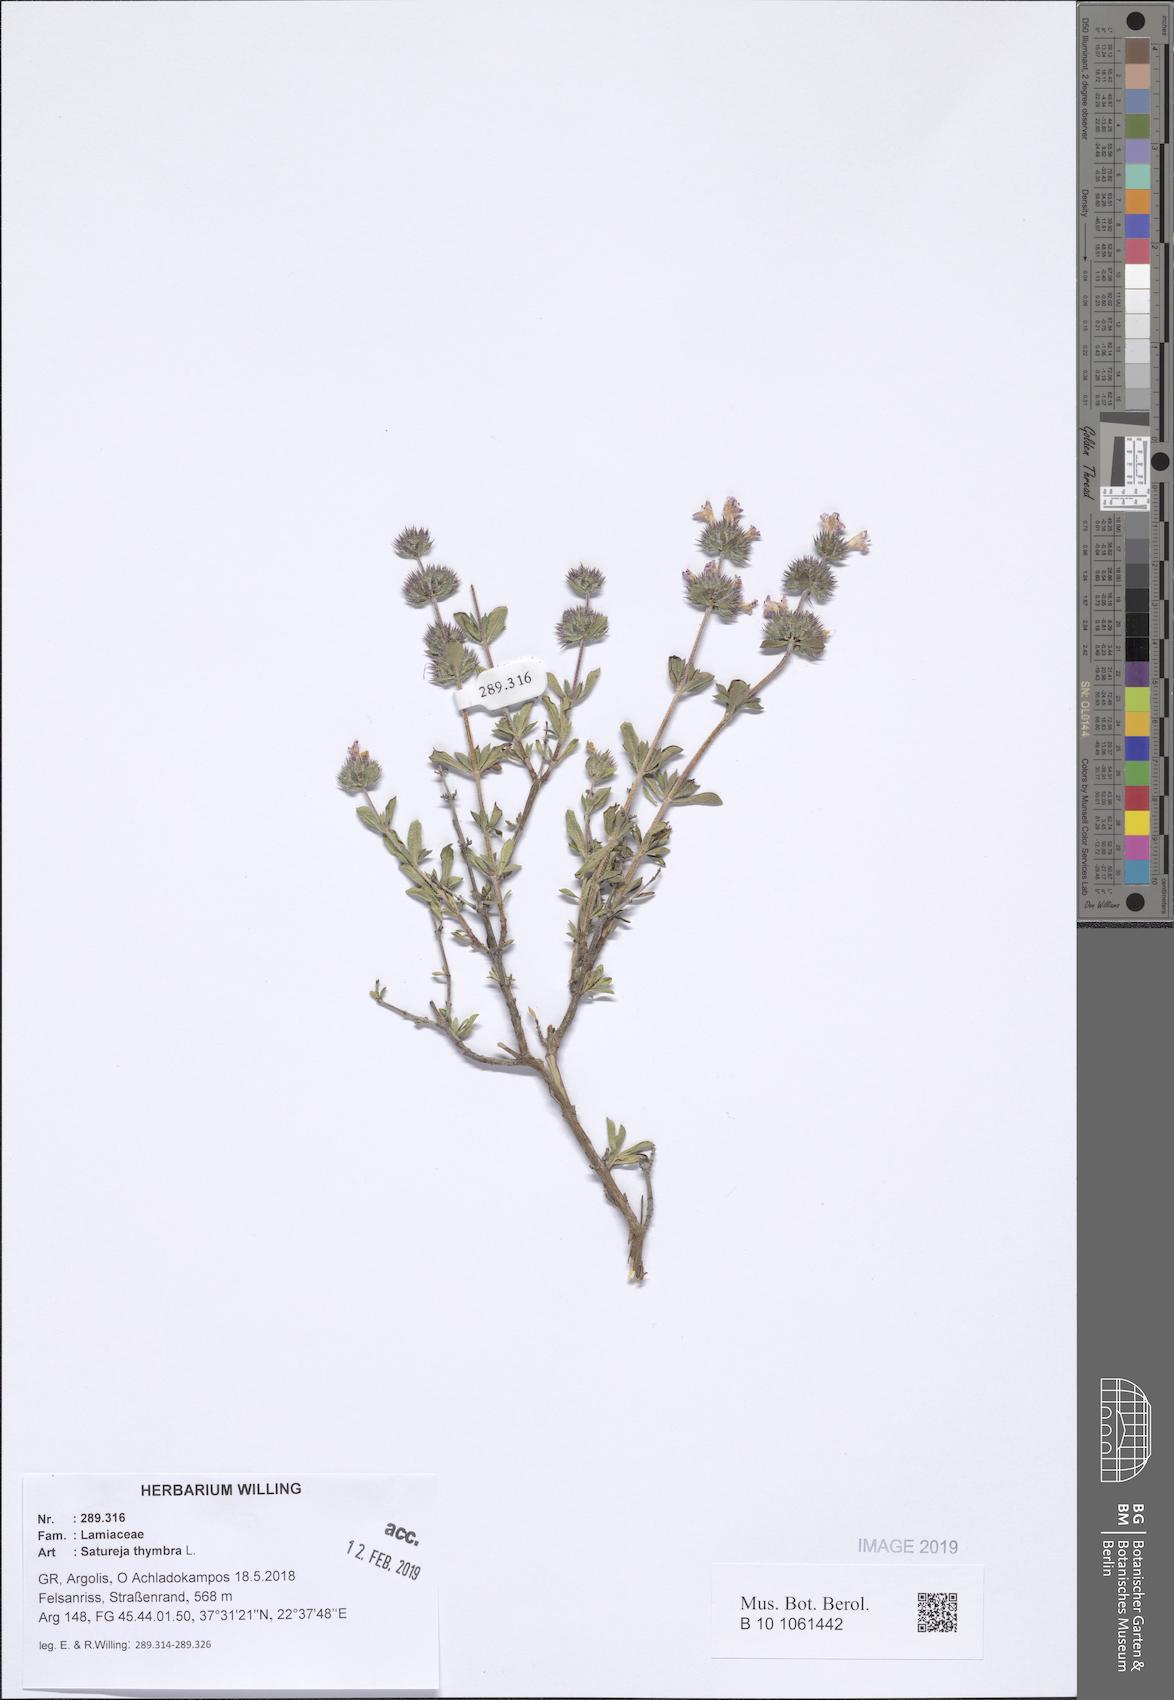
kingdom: Plantae
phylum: Tracheophyta
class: Magnoliopsida
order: Lamiales
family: Lamiaceae
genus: Satureja
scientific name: Satureja thymbra
